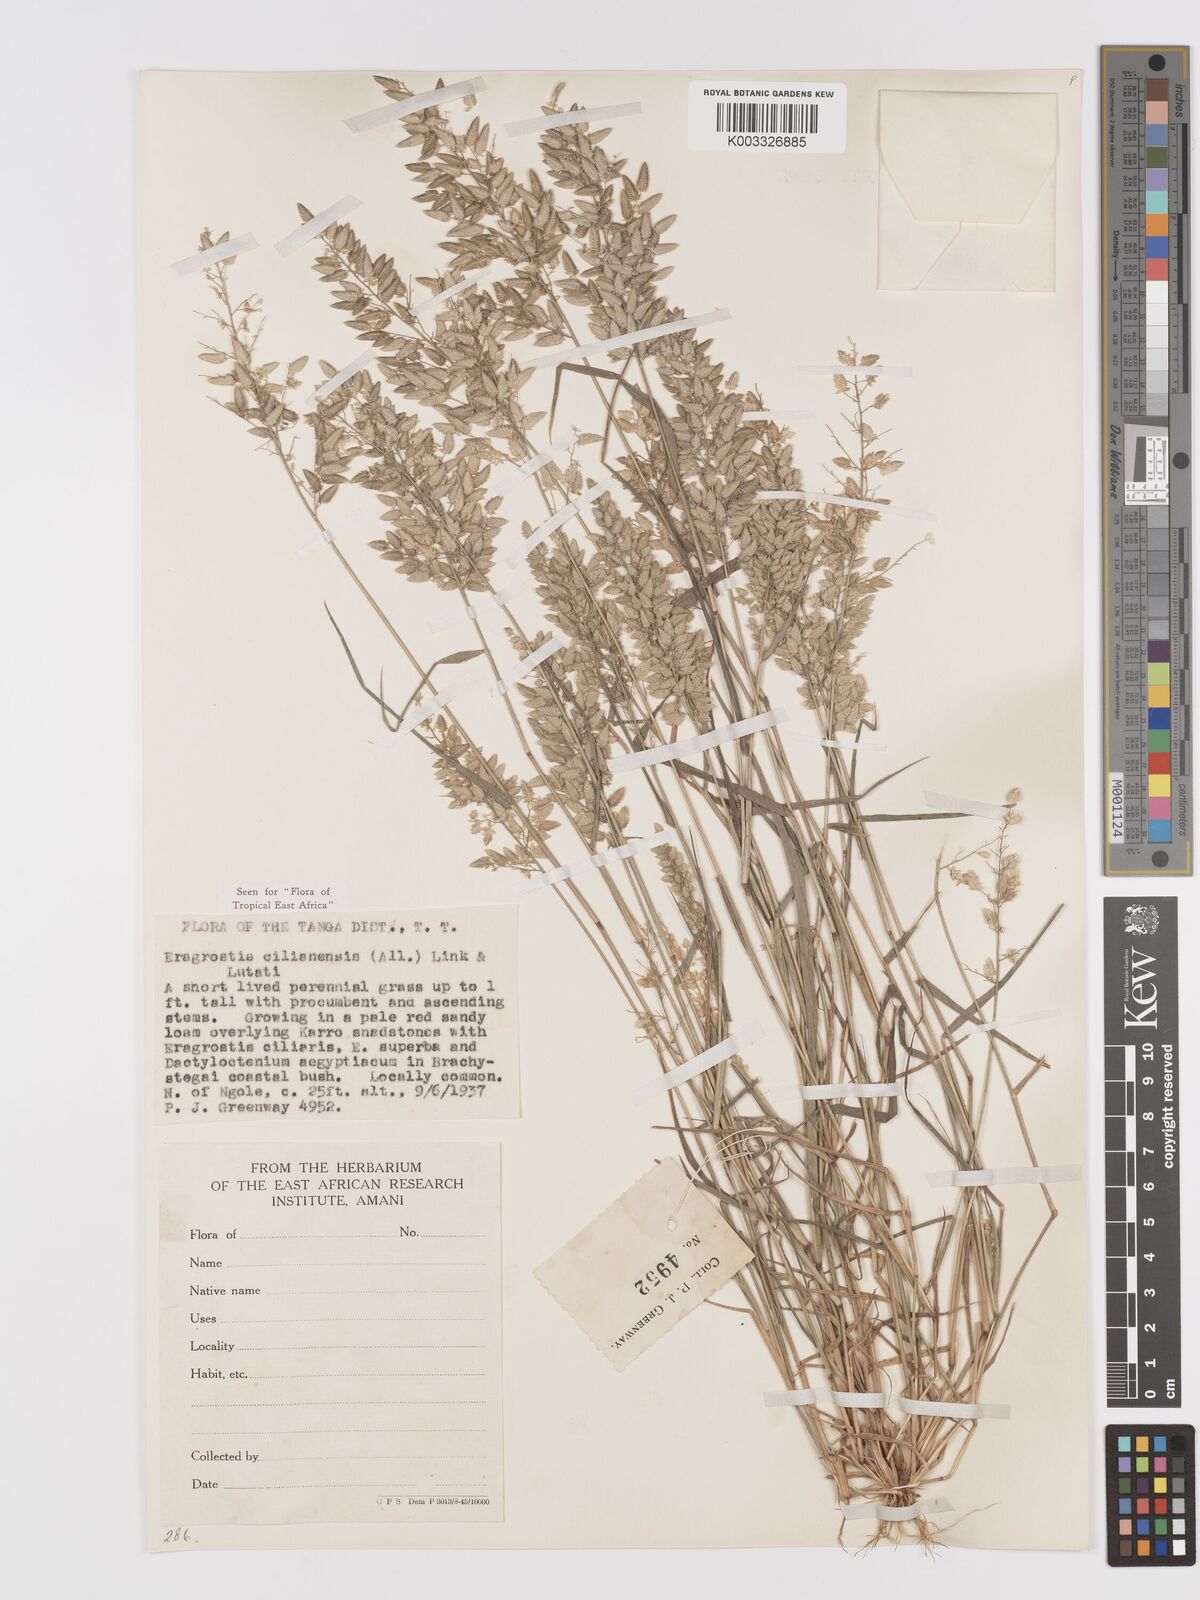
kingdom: Plantae
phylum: Tracheophyta
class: Liliopsida
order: Poales
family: Poaceae
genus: Eragrostis
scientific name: Eragrostis cilianensis
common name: Stinkgrass
